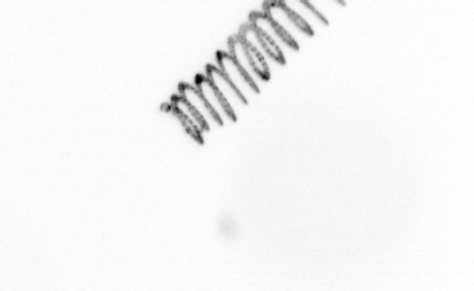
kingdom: Chromista
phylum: Ochrophyta
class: Bacillariophyceae
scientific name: Bacillariophyceae
